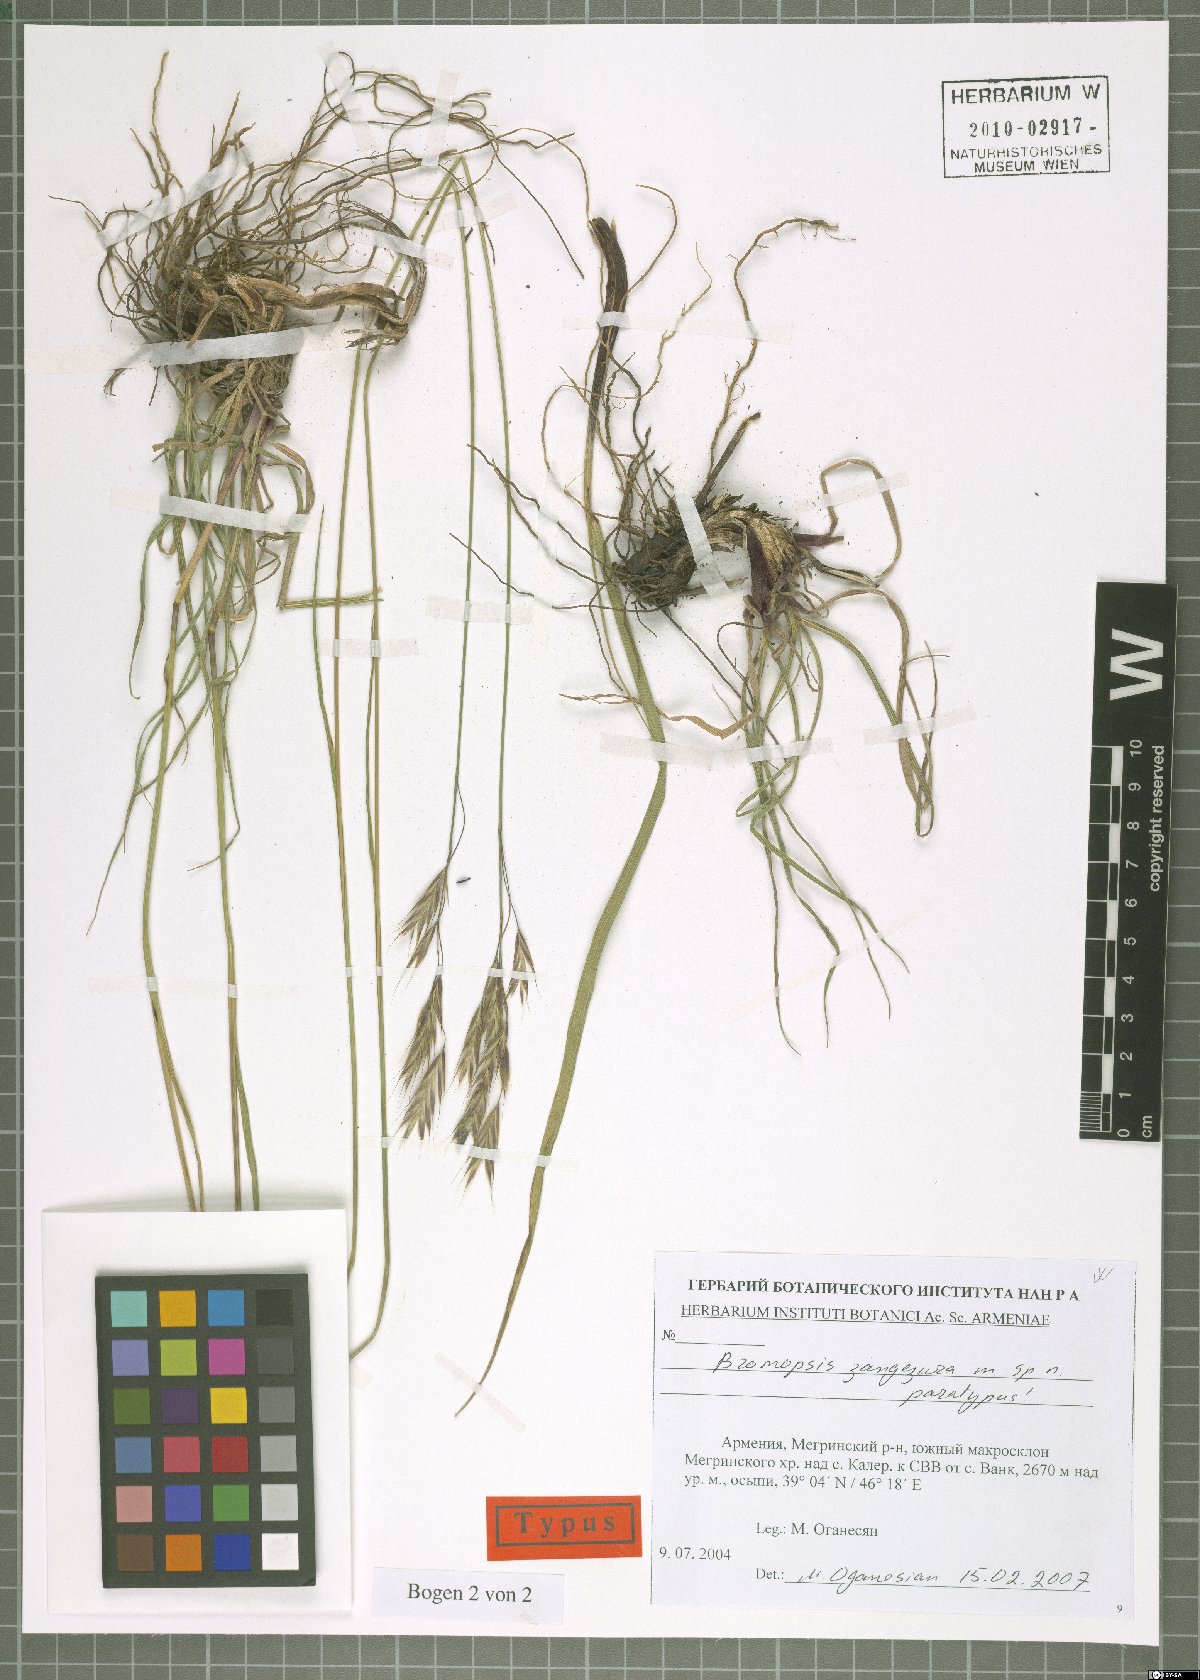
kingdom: Plantae
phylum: Tracheophyta
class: Liliopsida
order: Poales
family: Poaceae
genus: Bromus
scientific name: Bromus erectus
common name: Erect brome
